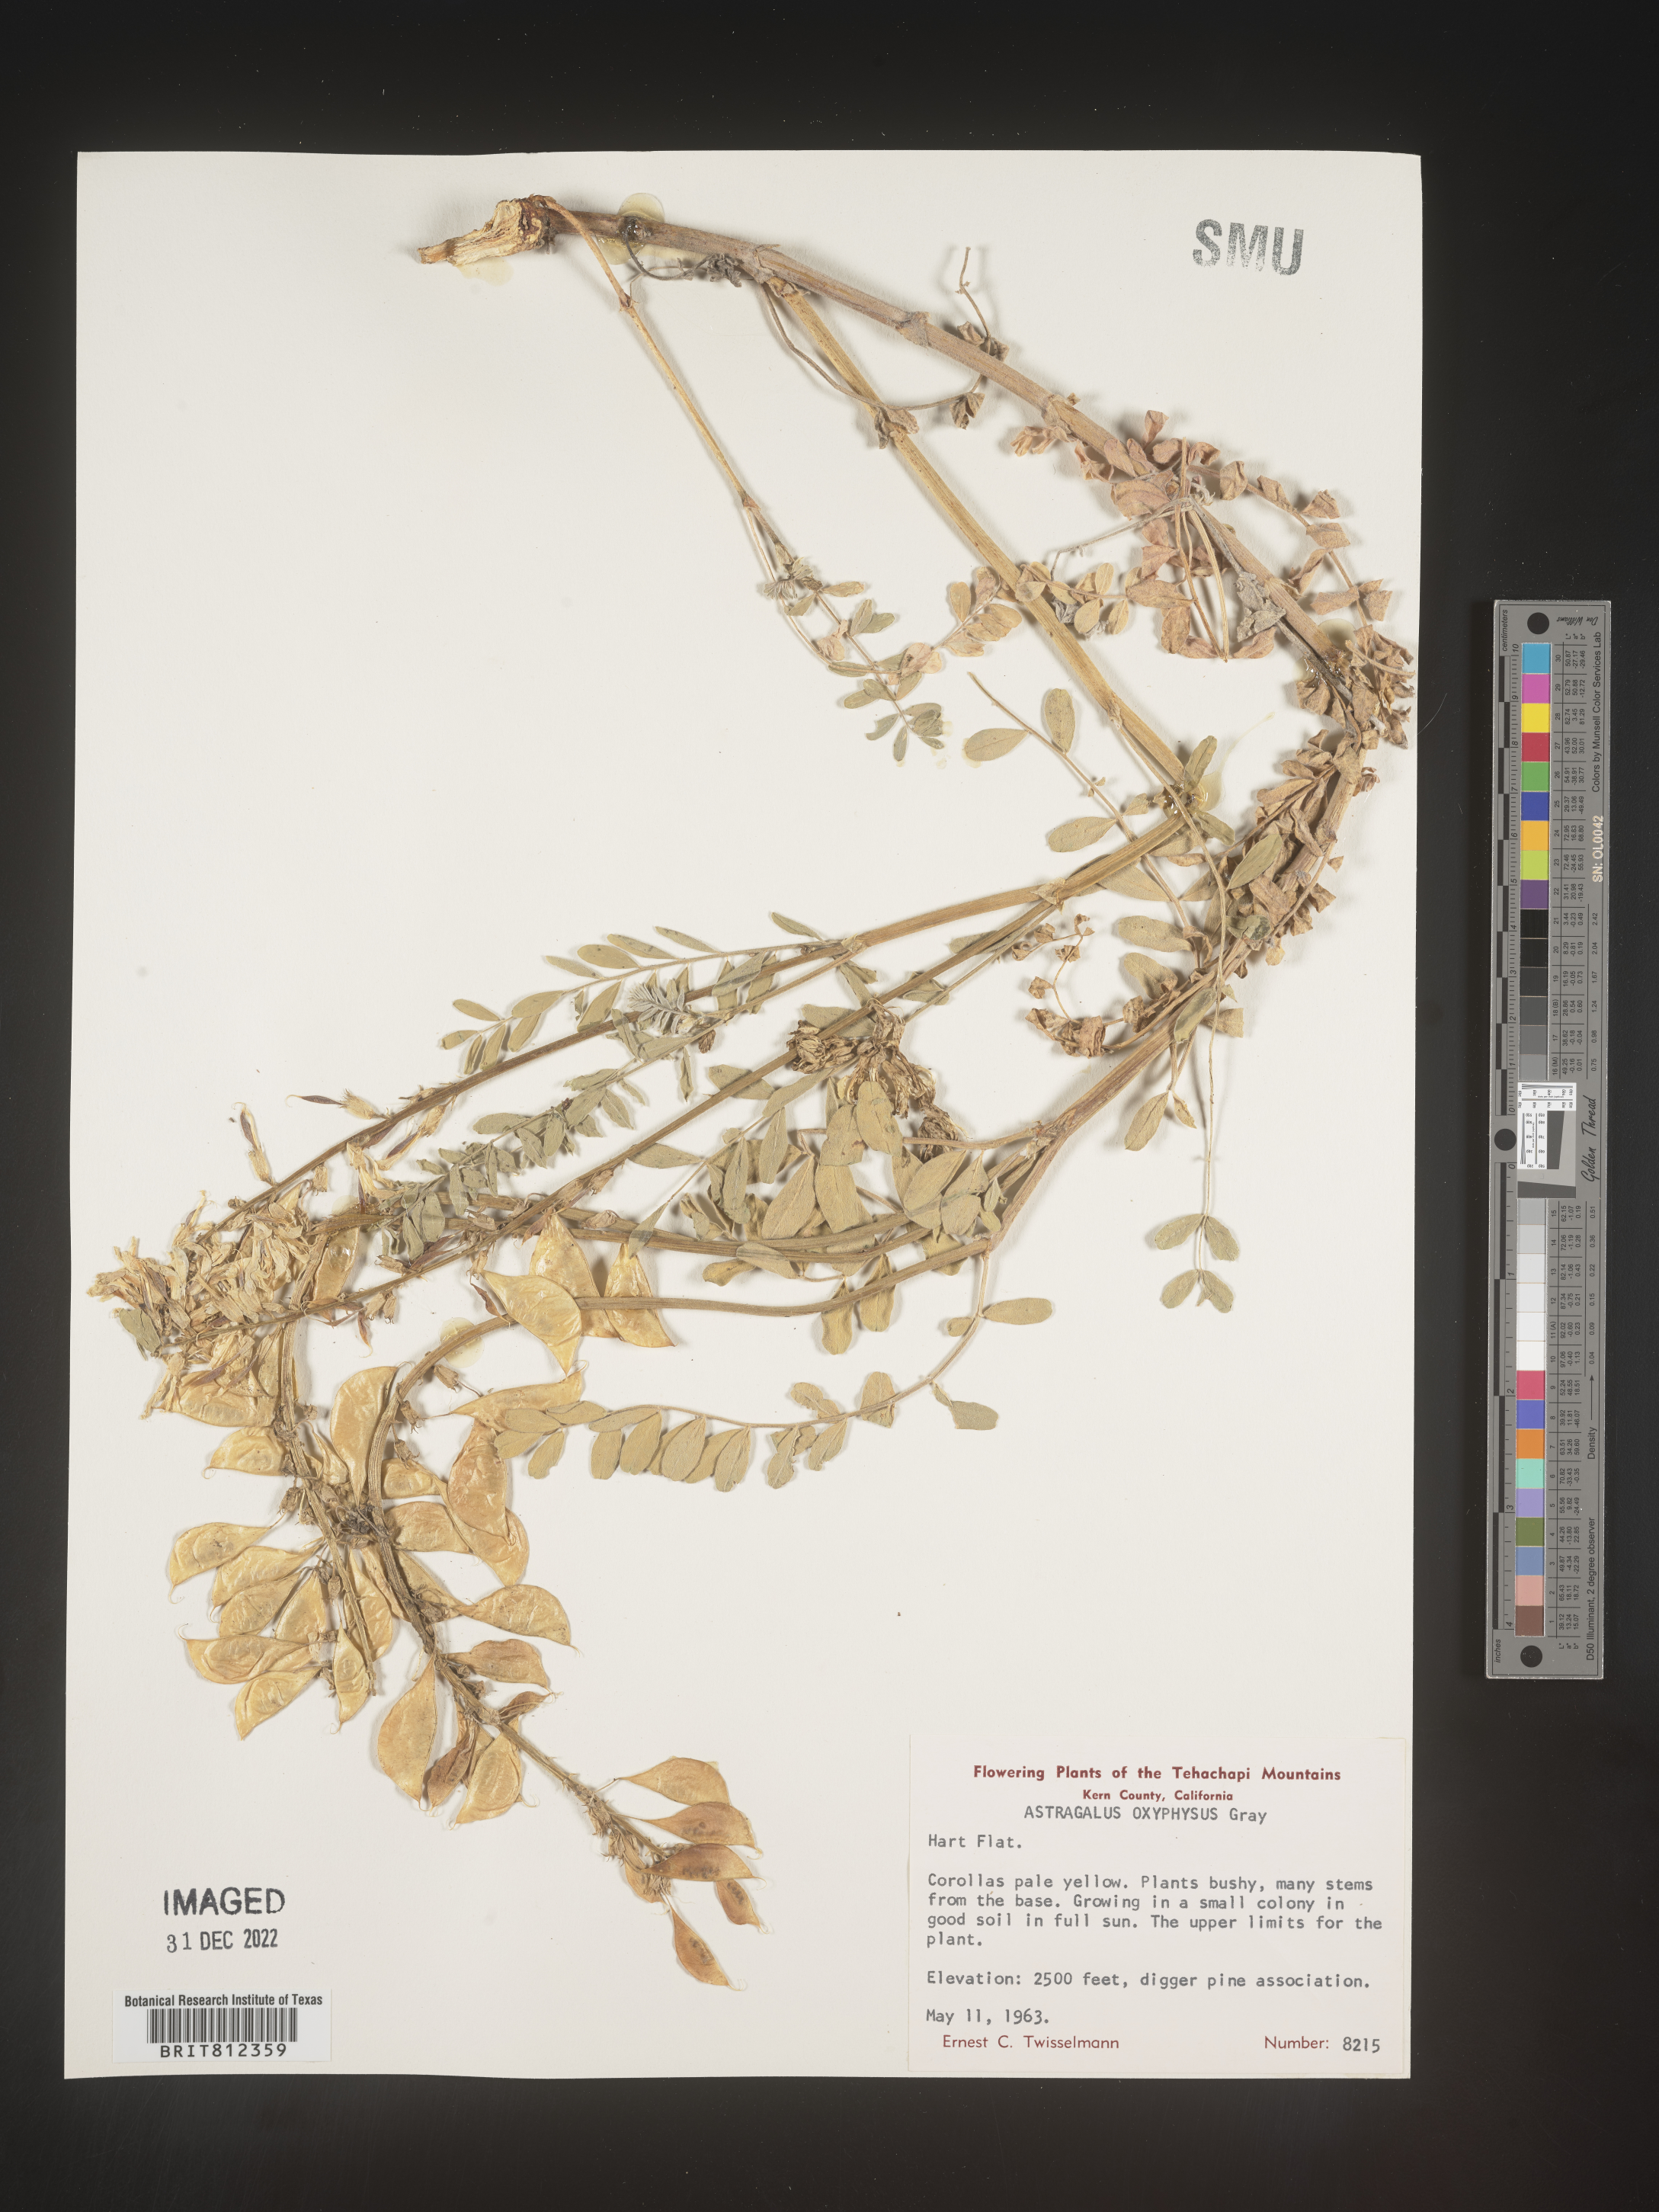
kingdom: Plantae
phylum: Tracheophyta
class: Magnoliopsida
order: Fabales
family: Fabaceae
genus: Astragalus
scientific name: Astragalus
